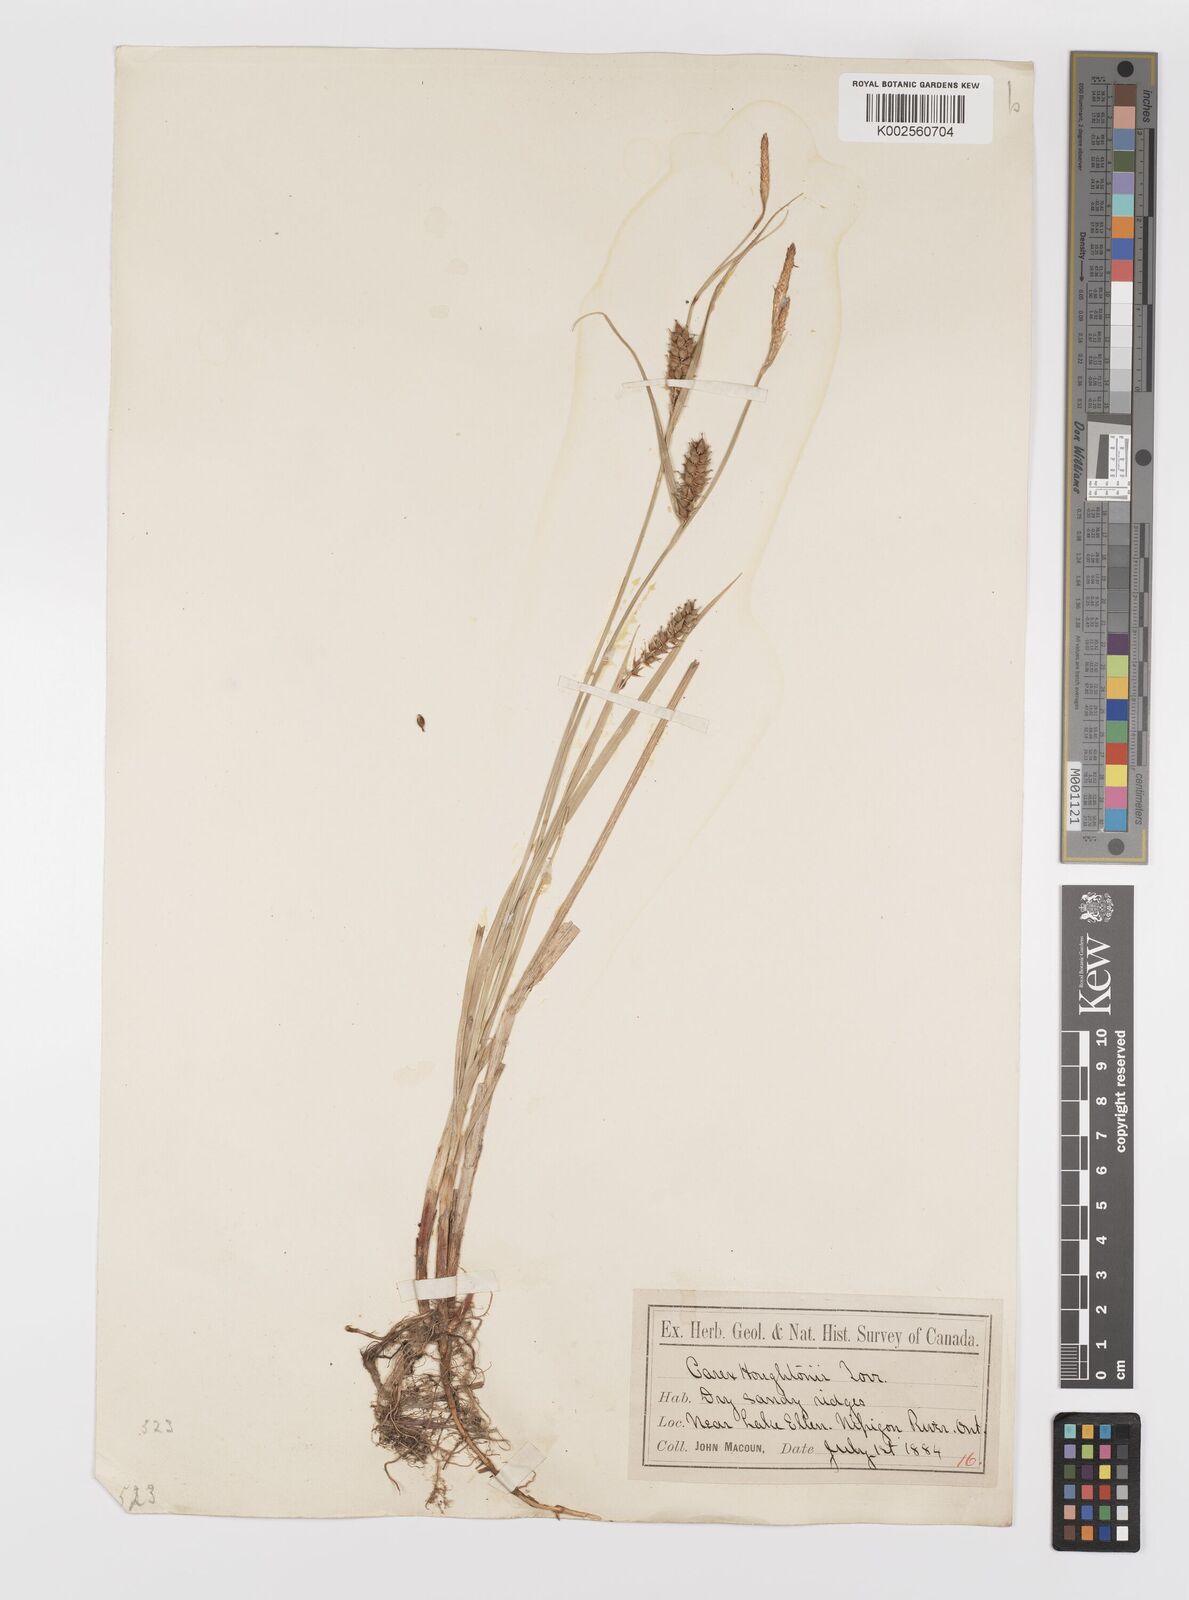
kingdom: Plantae
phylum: Tracheophyta
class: Liliopsida
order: Poales
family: Cyperaceae
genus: Carex
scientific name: Carex houghtoniana
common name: Houghton's sedge
